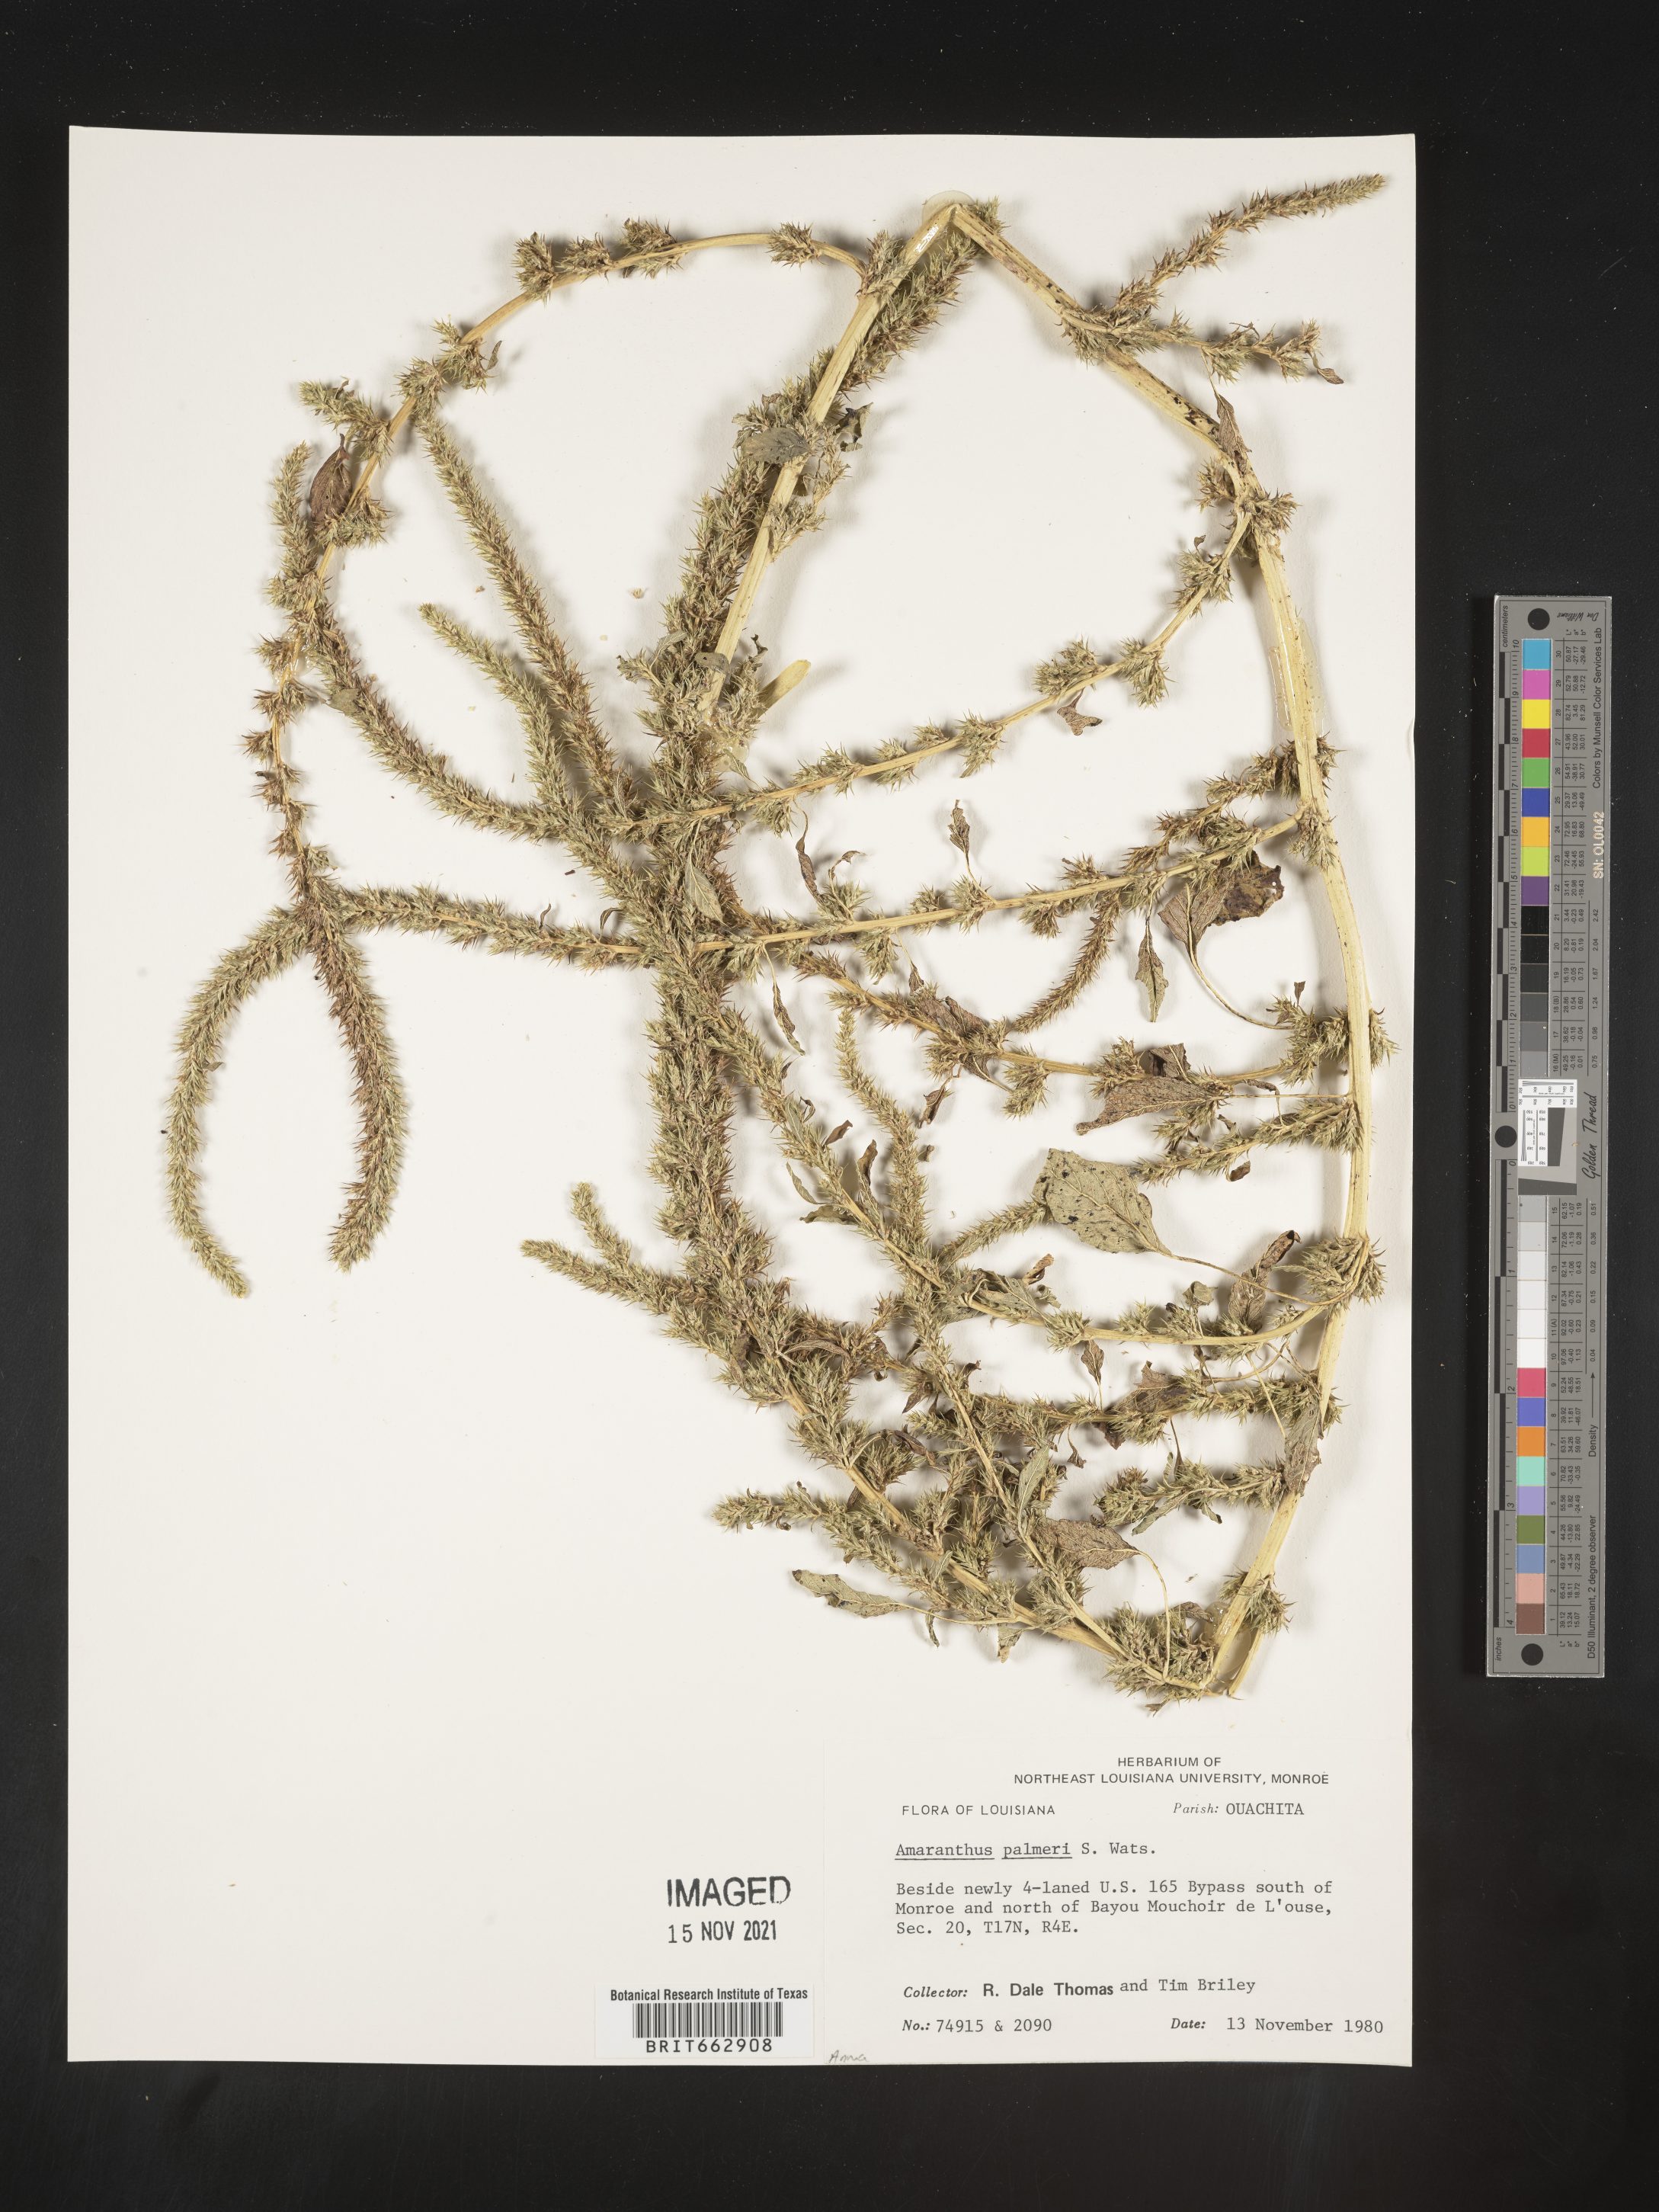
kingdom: Plantae
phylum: Tracheophyta
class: Magnoliopsida
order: Caryophyllales
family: Amaranthaceae
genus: Amaranthus
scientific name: Amaranthus palmeri
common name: Dioecious amaranth
